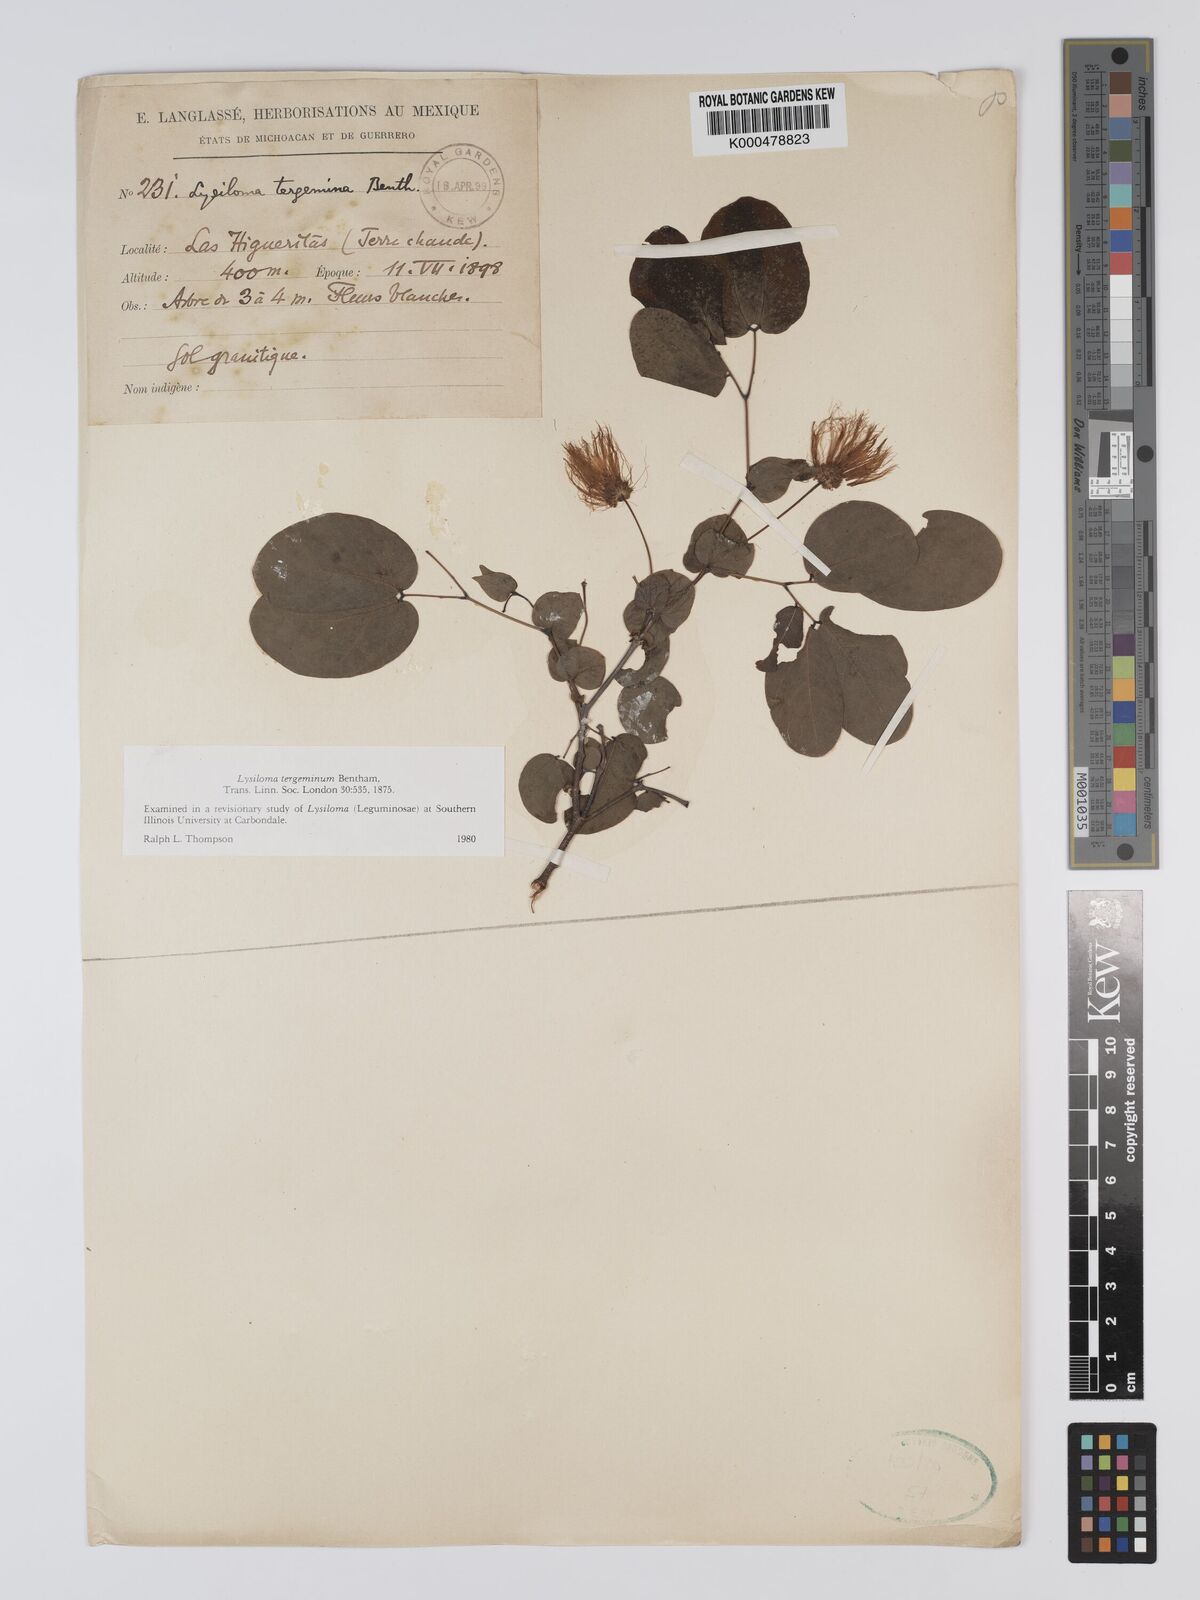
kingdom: Plantae
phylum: Tracheophyta
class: Magnoliopsida
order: Fabales
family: Fabaceae
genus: Lysiloma
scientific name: Lysiloma tergeminum
